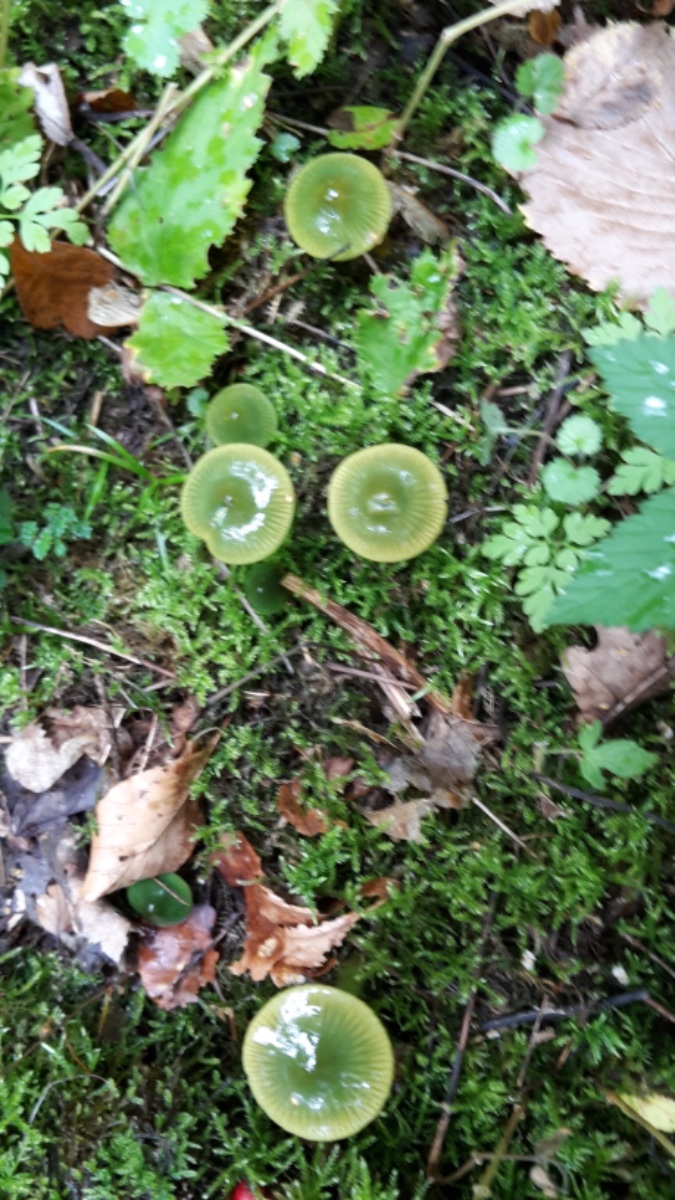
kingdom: Fungi
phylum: Basidiomycota
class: Agaricomycetes
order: Agaricales
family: Hygrophoraceae
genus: Gliophorus
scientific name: Gliophorus psittacinus
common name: papegøje-vokshat
